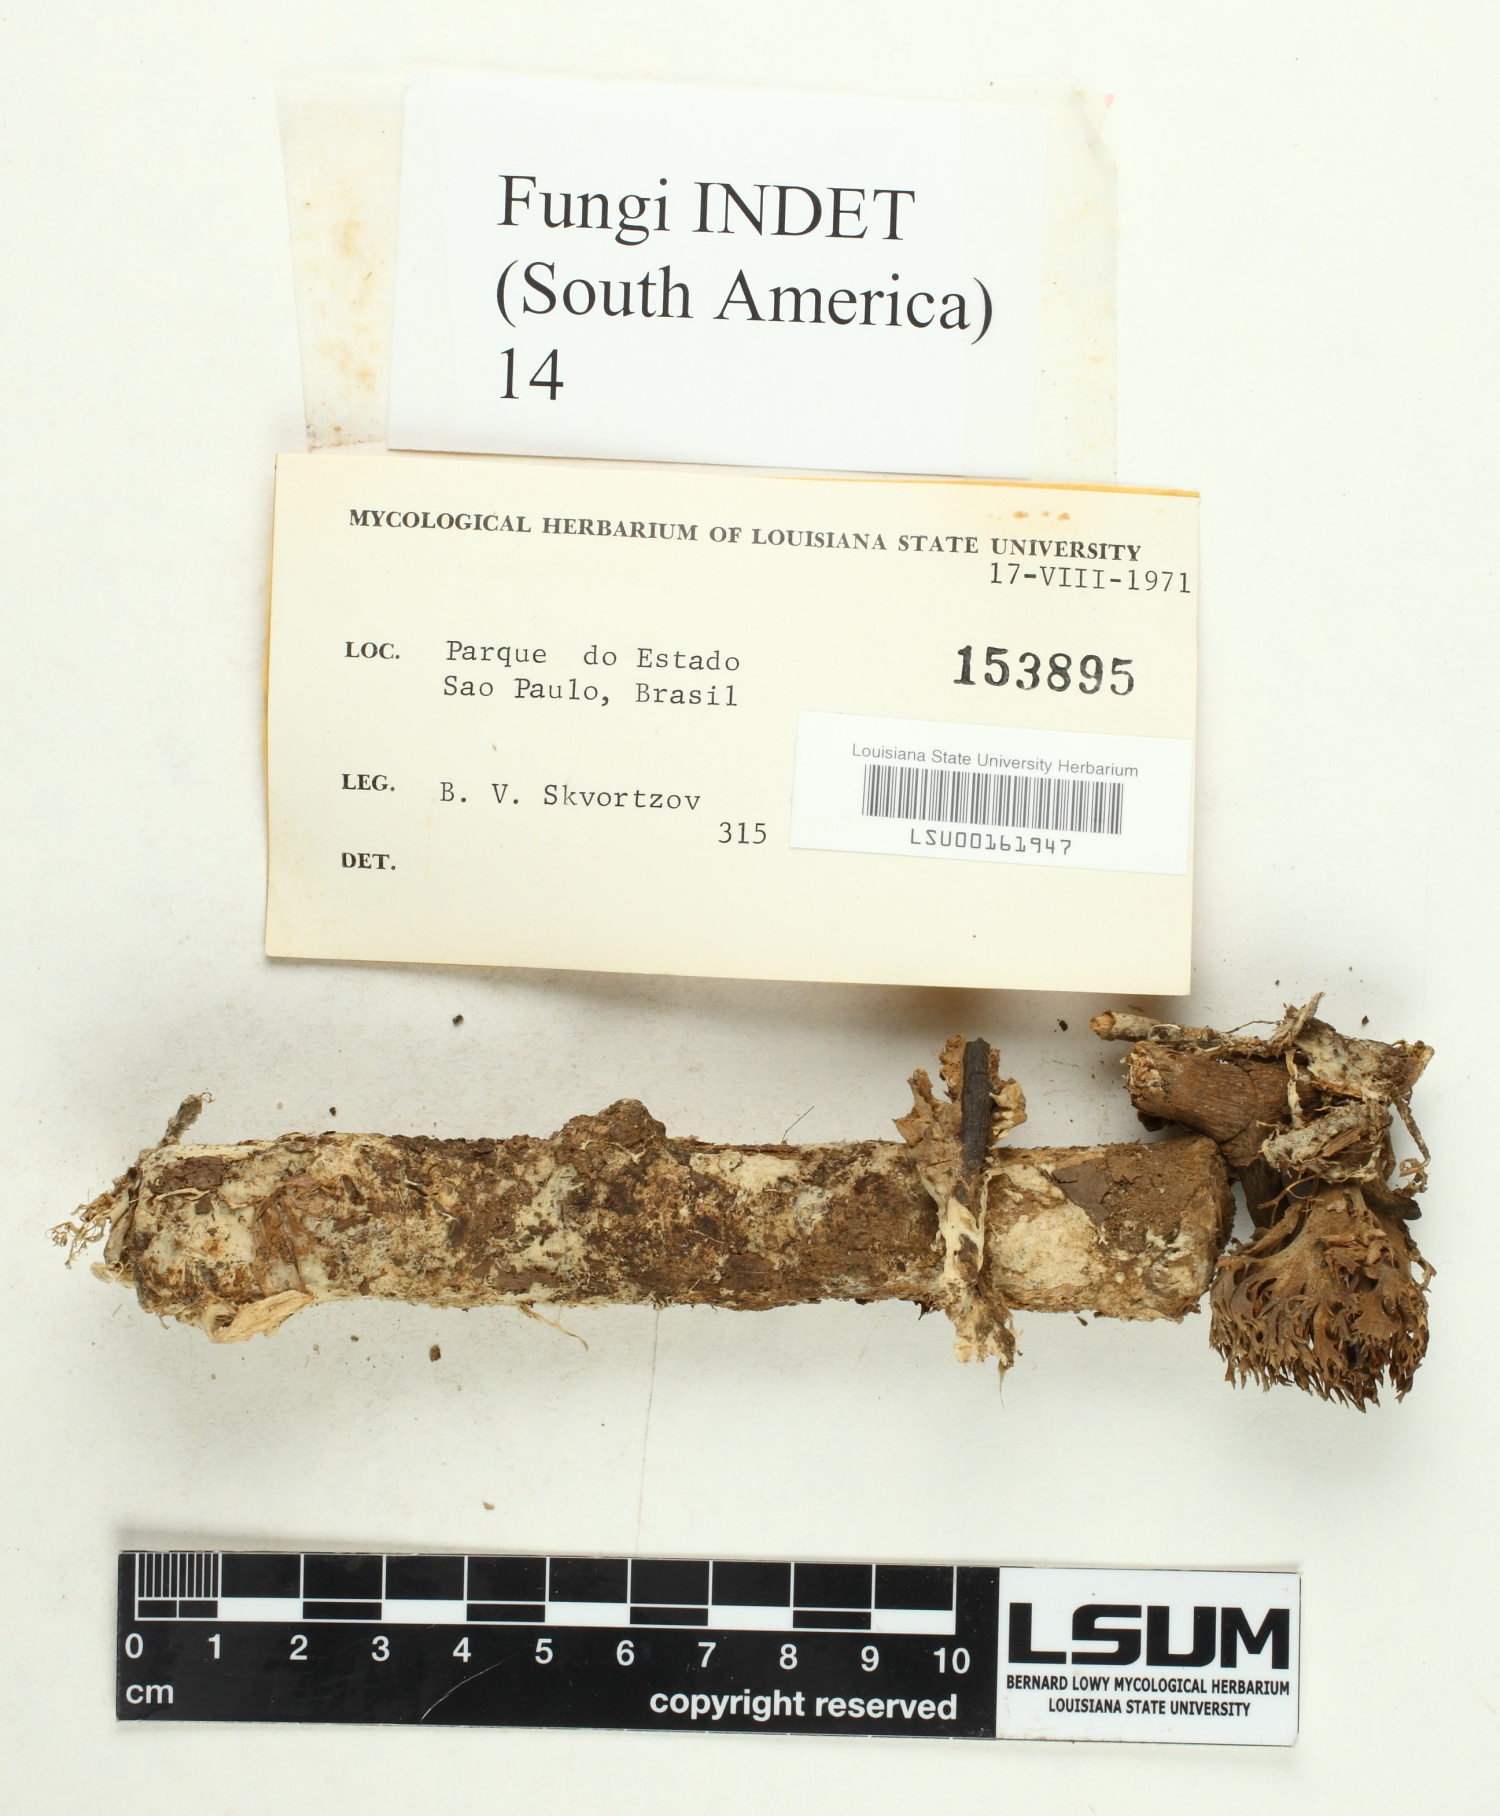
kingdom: Fungi
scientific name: Fungi
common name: Fungi
